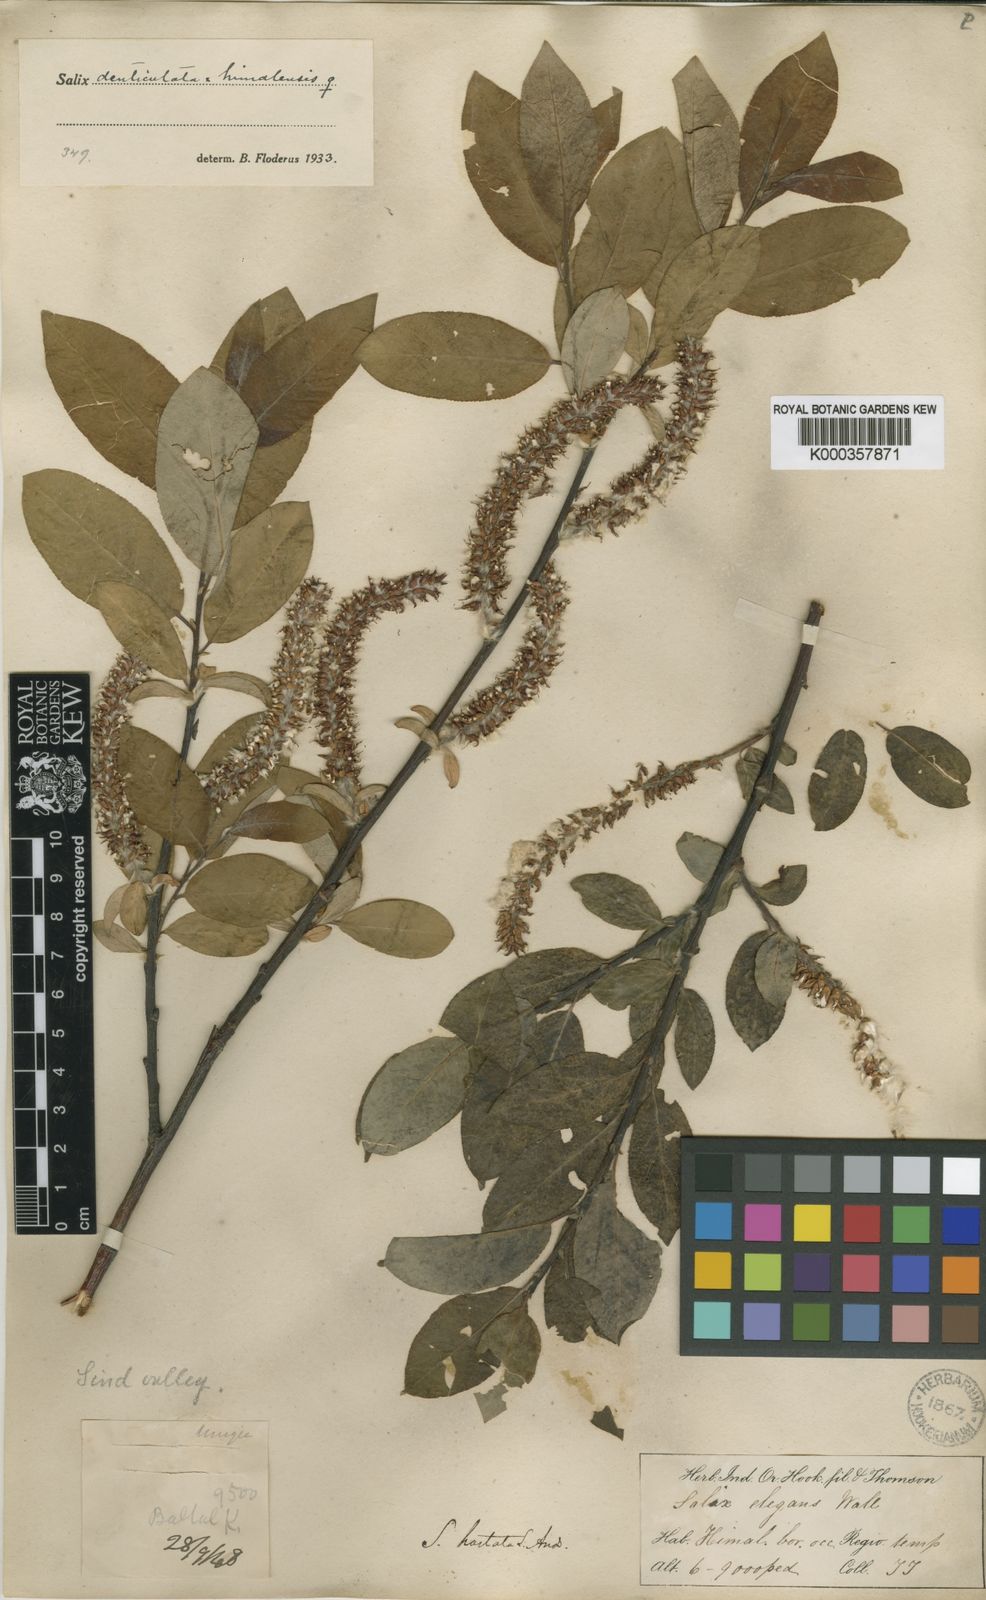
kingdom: Plantae
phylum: Tracheophyta
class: Magnoliopsida
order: Malpighiales
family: Salicaceae
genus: Salix
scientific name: Salix denticulata
